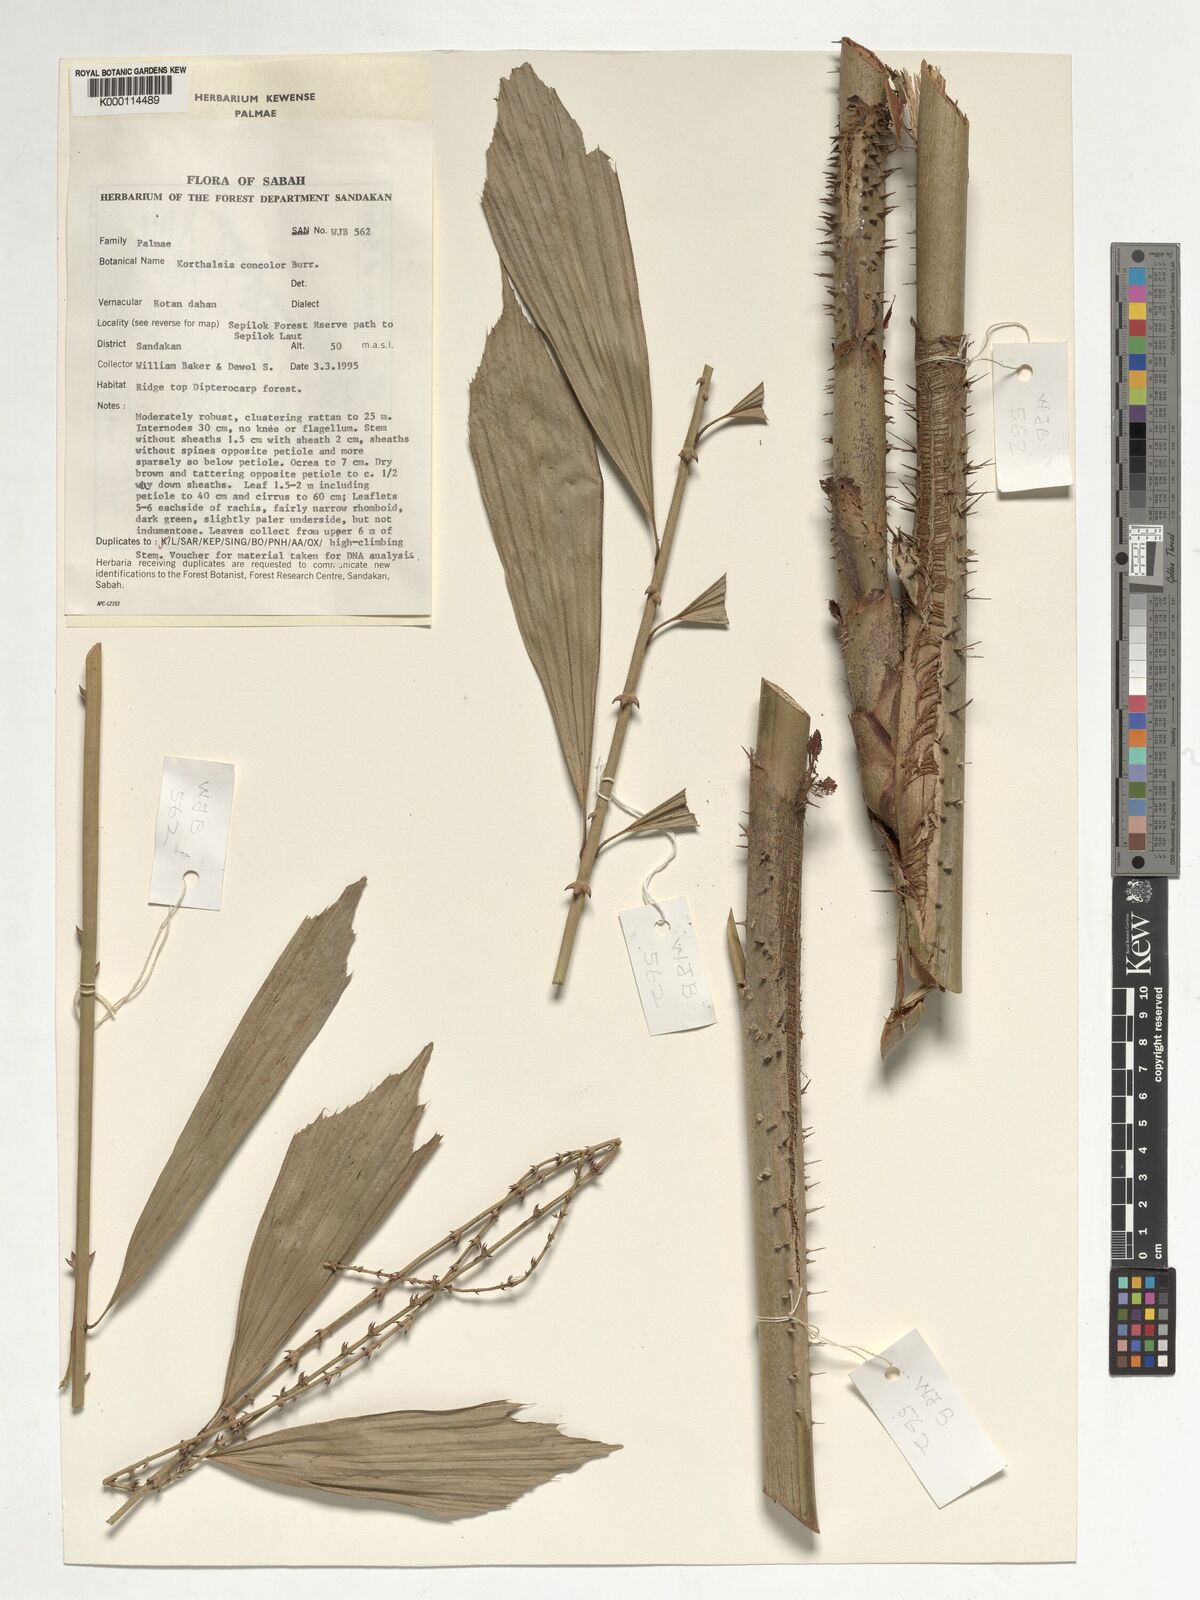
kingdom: Plantae
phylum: Tracheophyta
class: Liliopsida
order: Arecales
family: Arecaceae
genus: Korthalsia
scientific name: Korthalsia concolor
